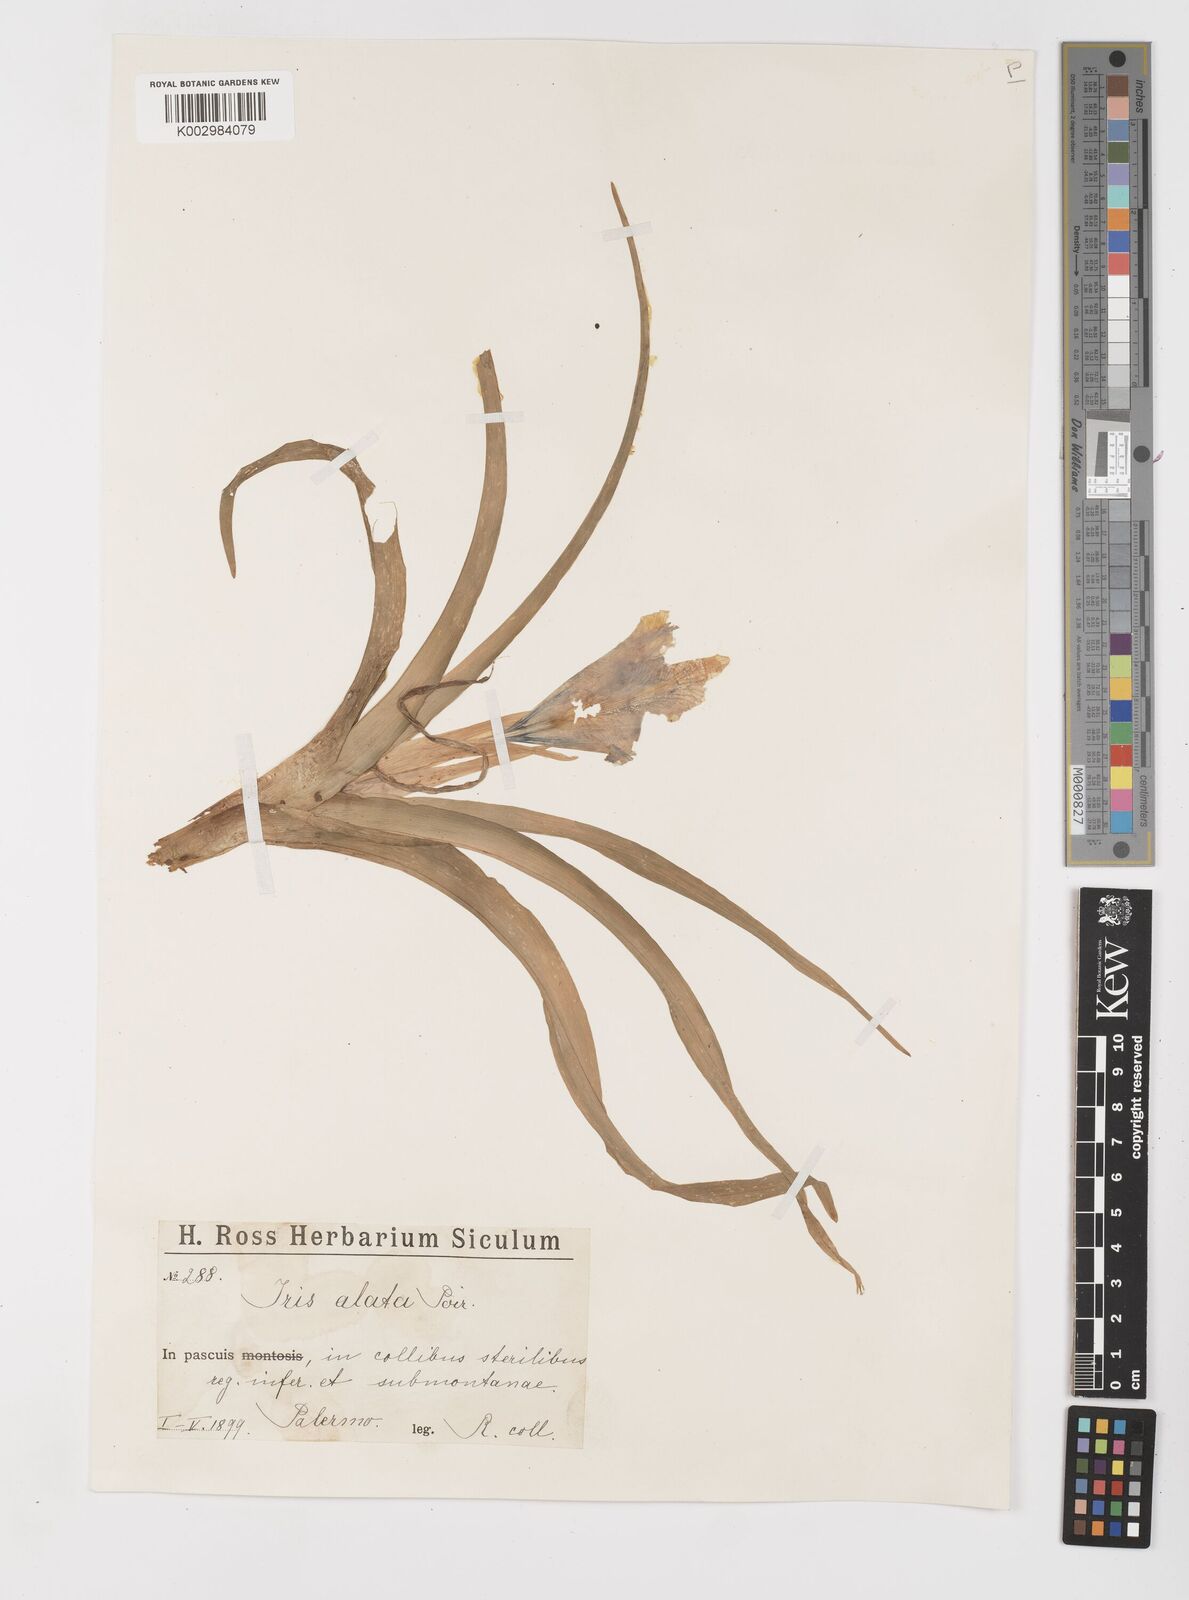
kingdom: Plantae
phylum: Tracheophyta
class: Liliopsida
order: Asparagales
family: Iridaceae
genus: Iris
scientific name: Iris planifolia
